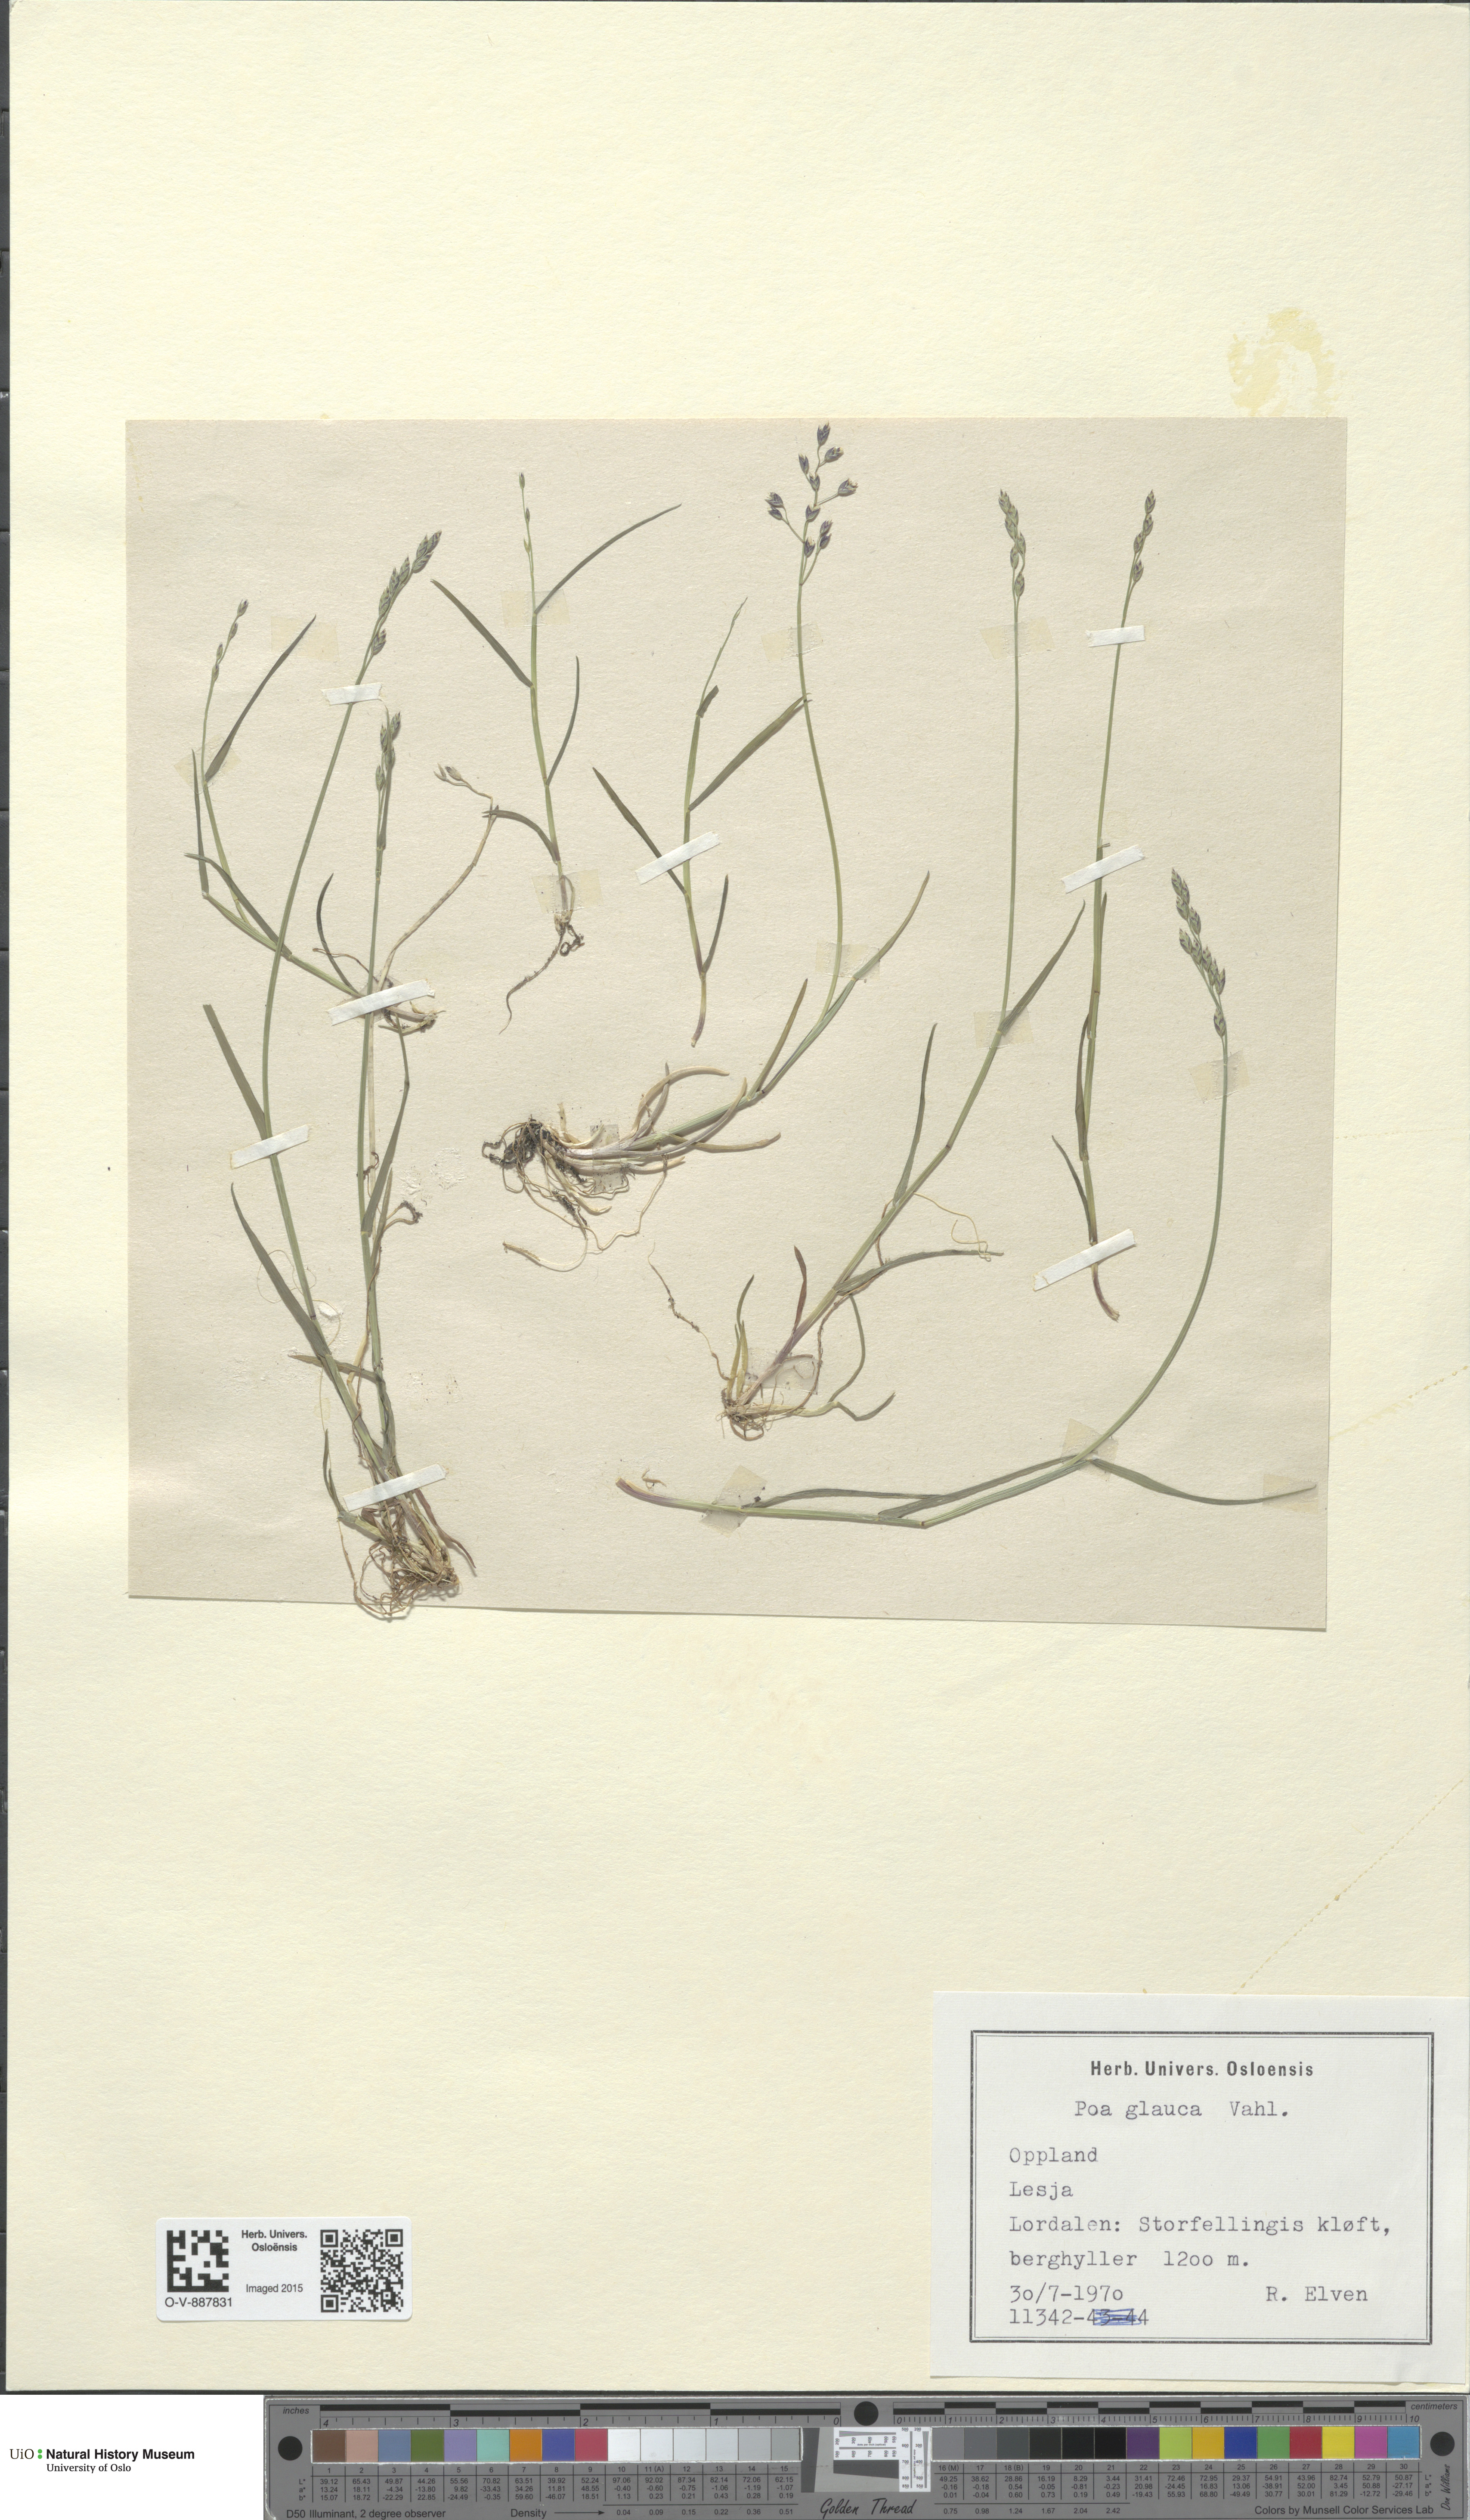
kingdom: Plantae
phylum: Tracheophyta
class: Liliopsida
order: Poales
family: Poaceae
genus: Poa
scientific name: Poa glauca
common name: Glaucous bluegrass
